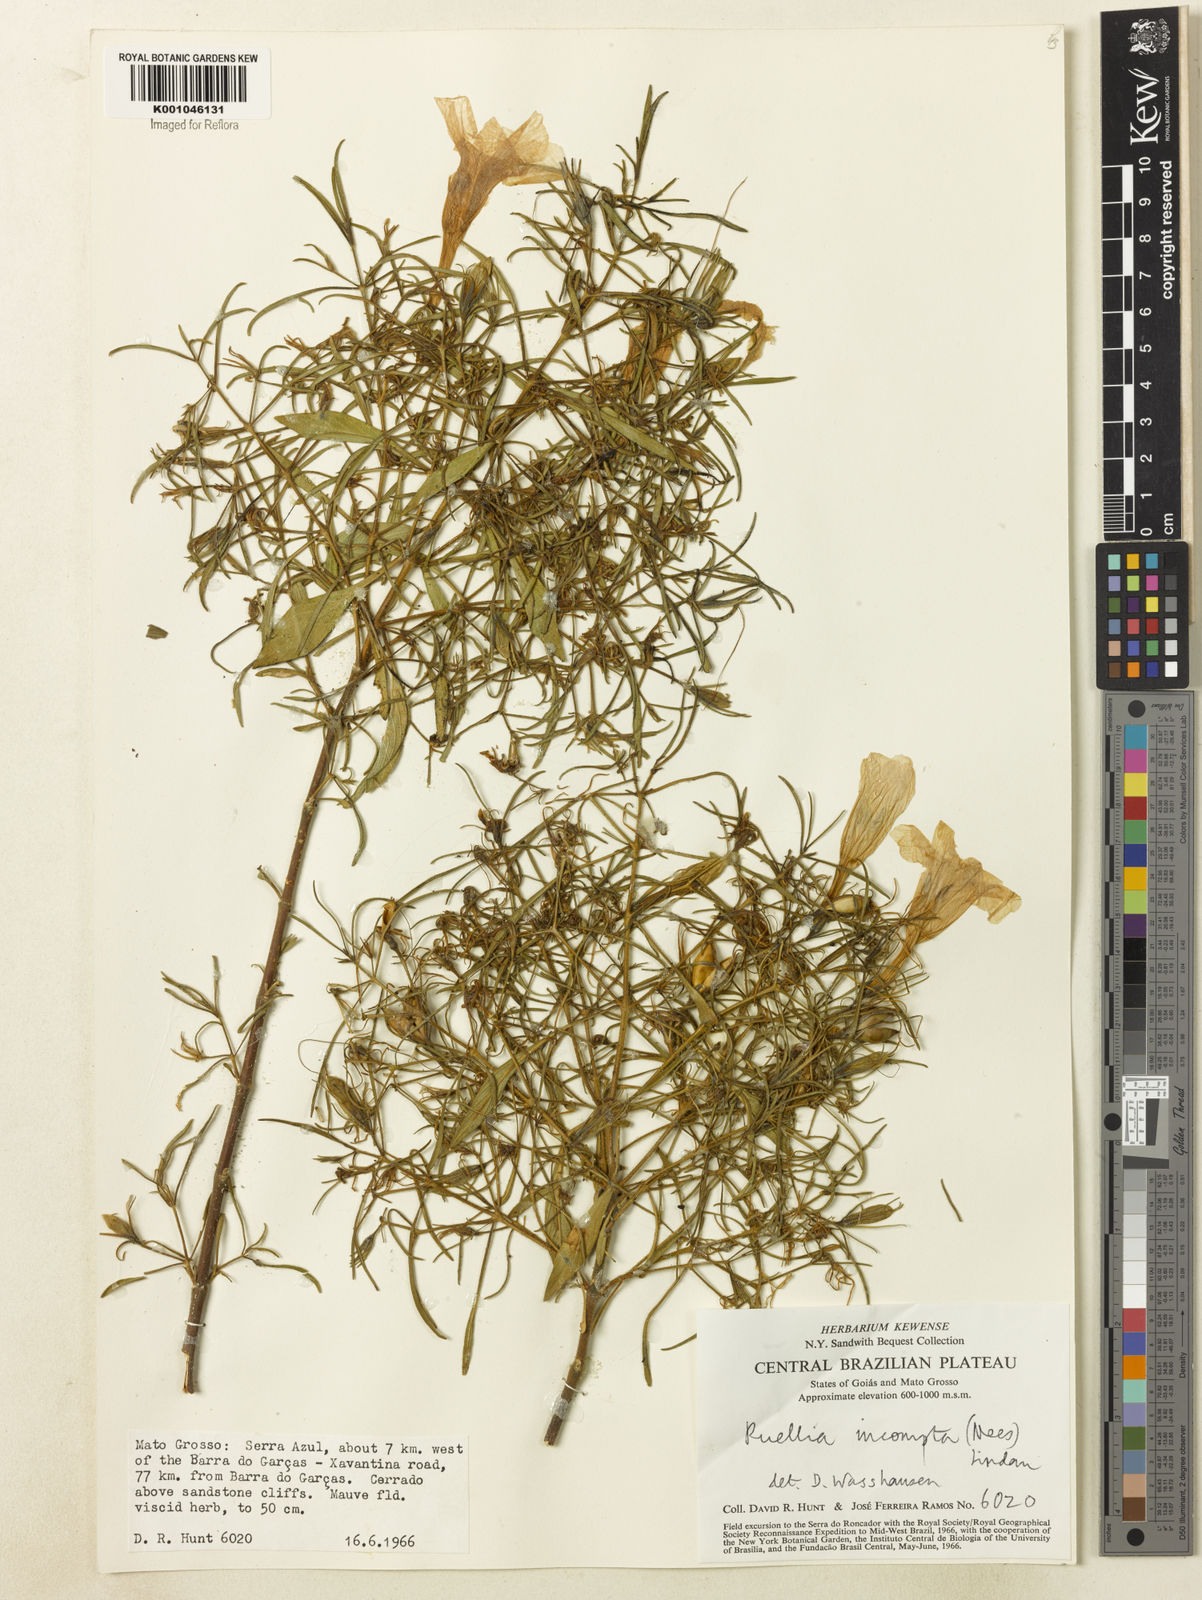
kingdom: Plantae
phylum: Tracheophyta
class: Magnoliopsida
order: Lamiales
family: Acanthaceae
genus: Ruellia
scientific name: Ruellia
